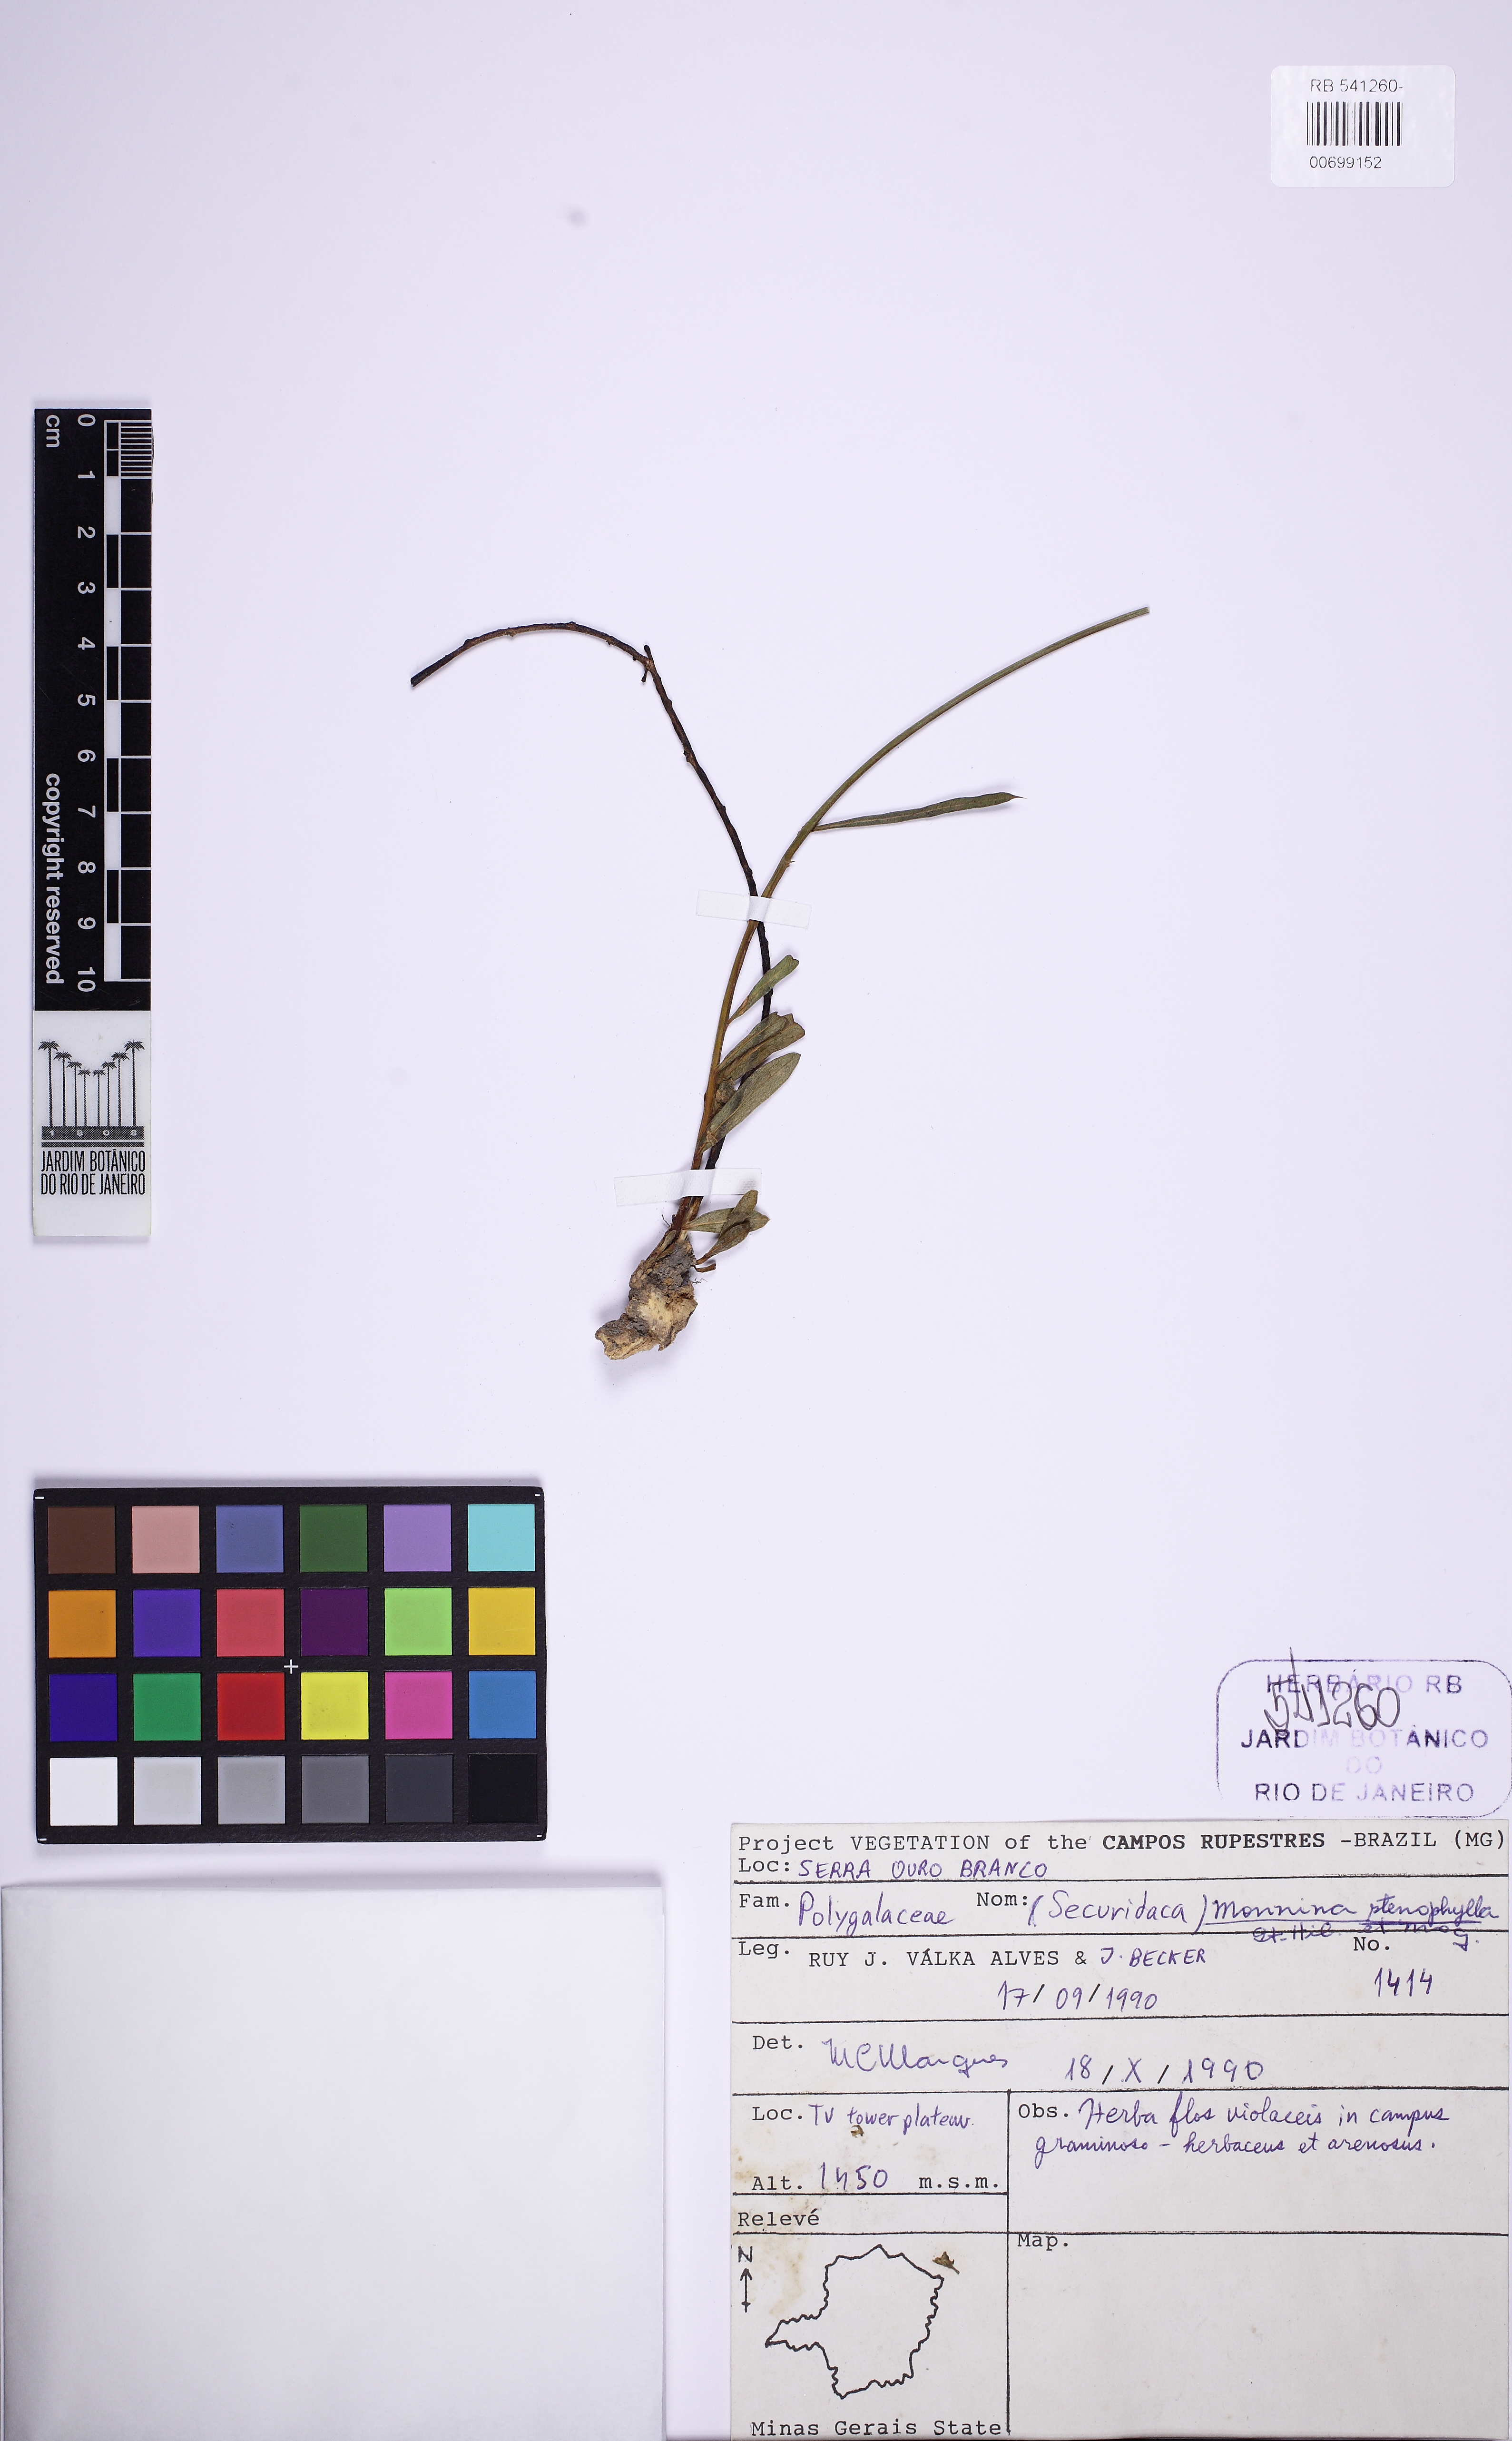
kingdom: Plantae
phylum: Tracheophyta
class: Magnoliopsida
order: Fabales
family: Polygalaceae
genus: Monnina
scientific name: Monnina stenophylla
